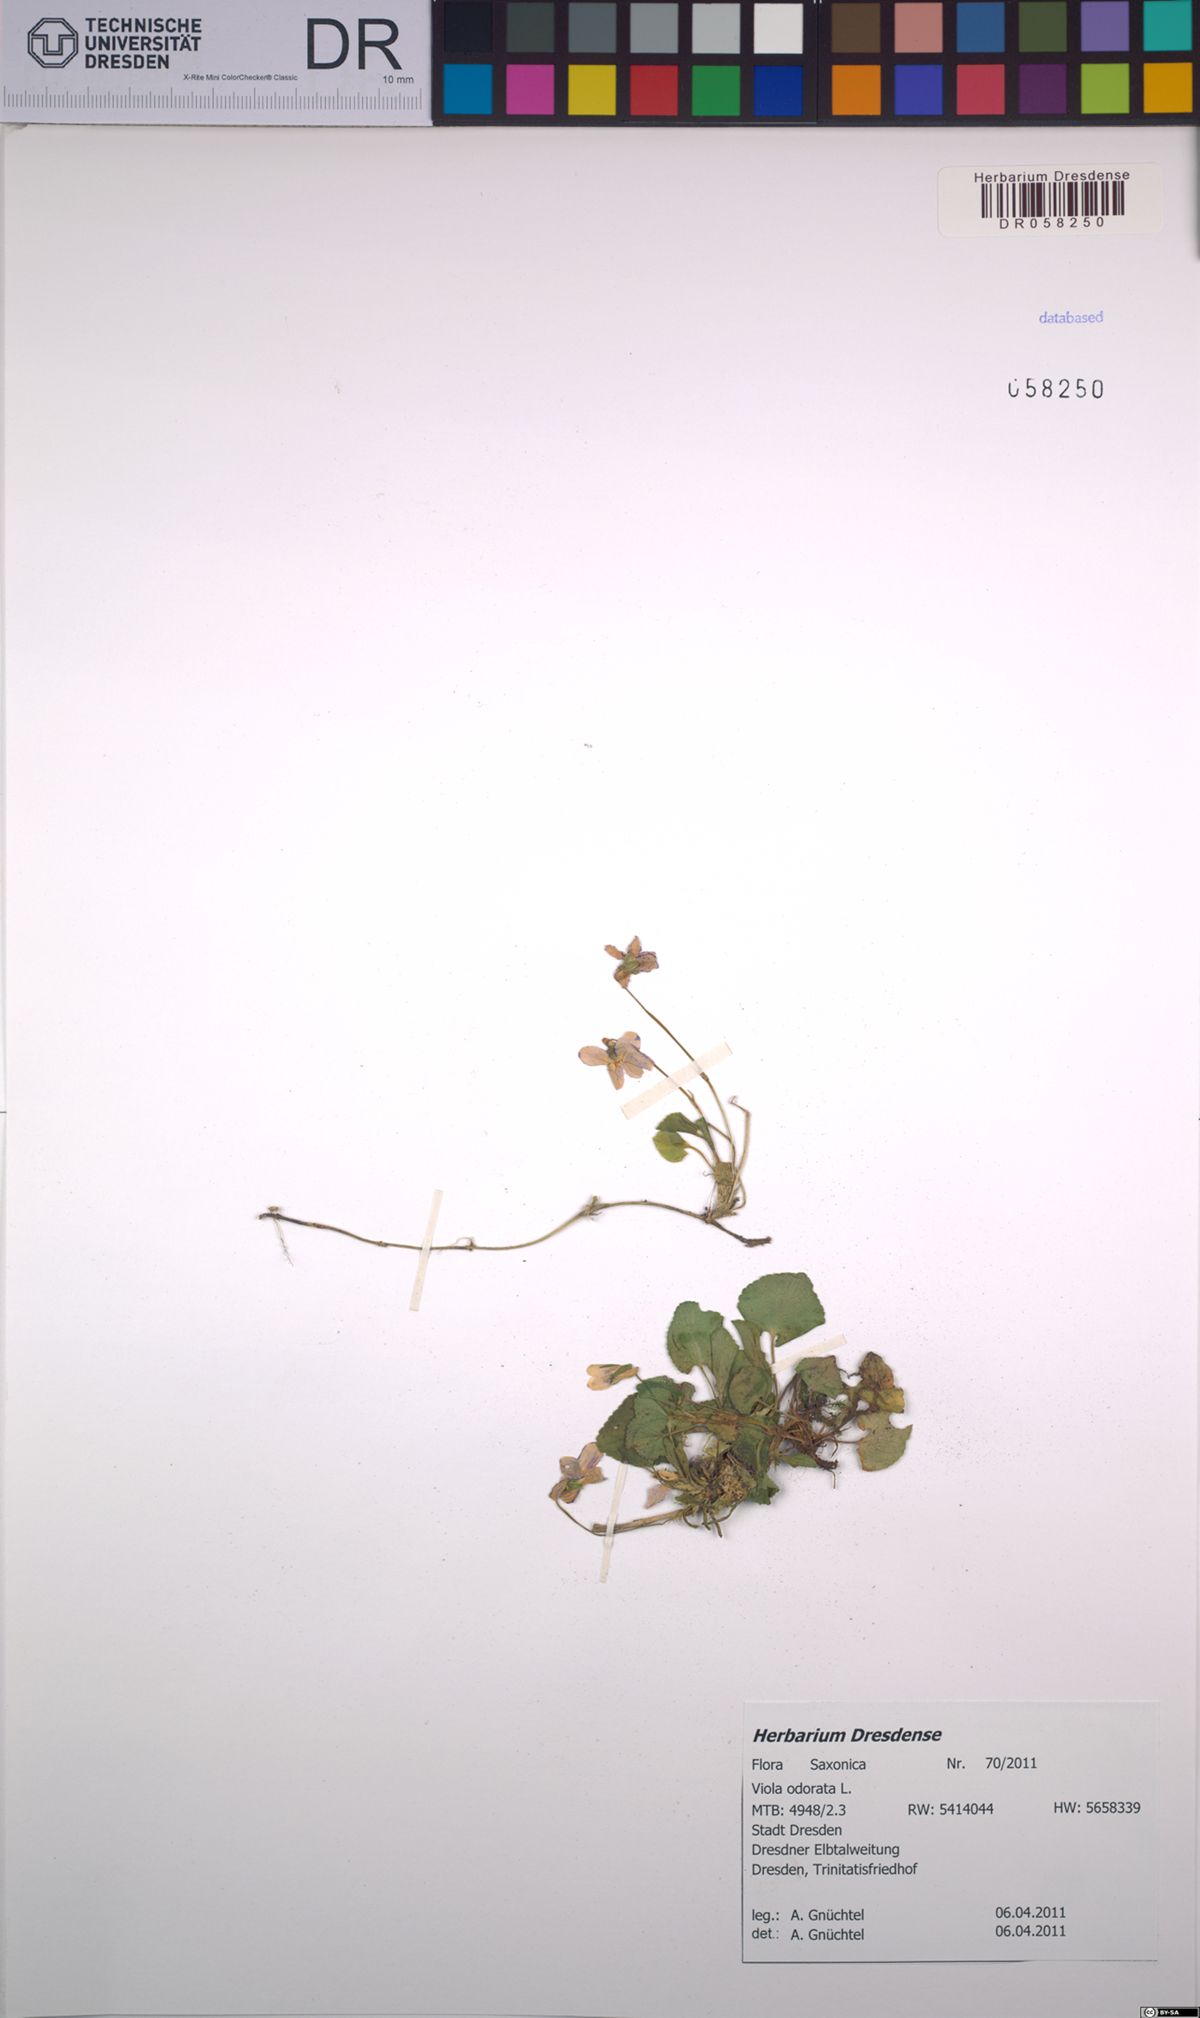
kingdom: Plantae
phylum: Tracheophyta
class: Magnoliopsida
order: Malpighiales
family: Violaceae
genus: Viola
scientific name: Viola odorata
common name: Sweet violet
